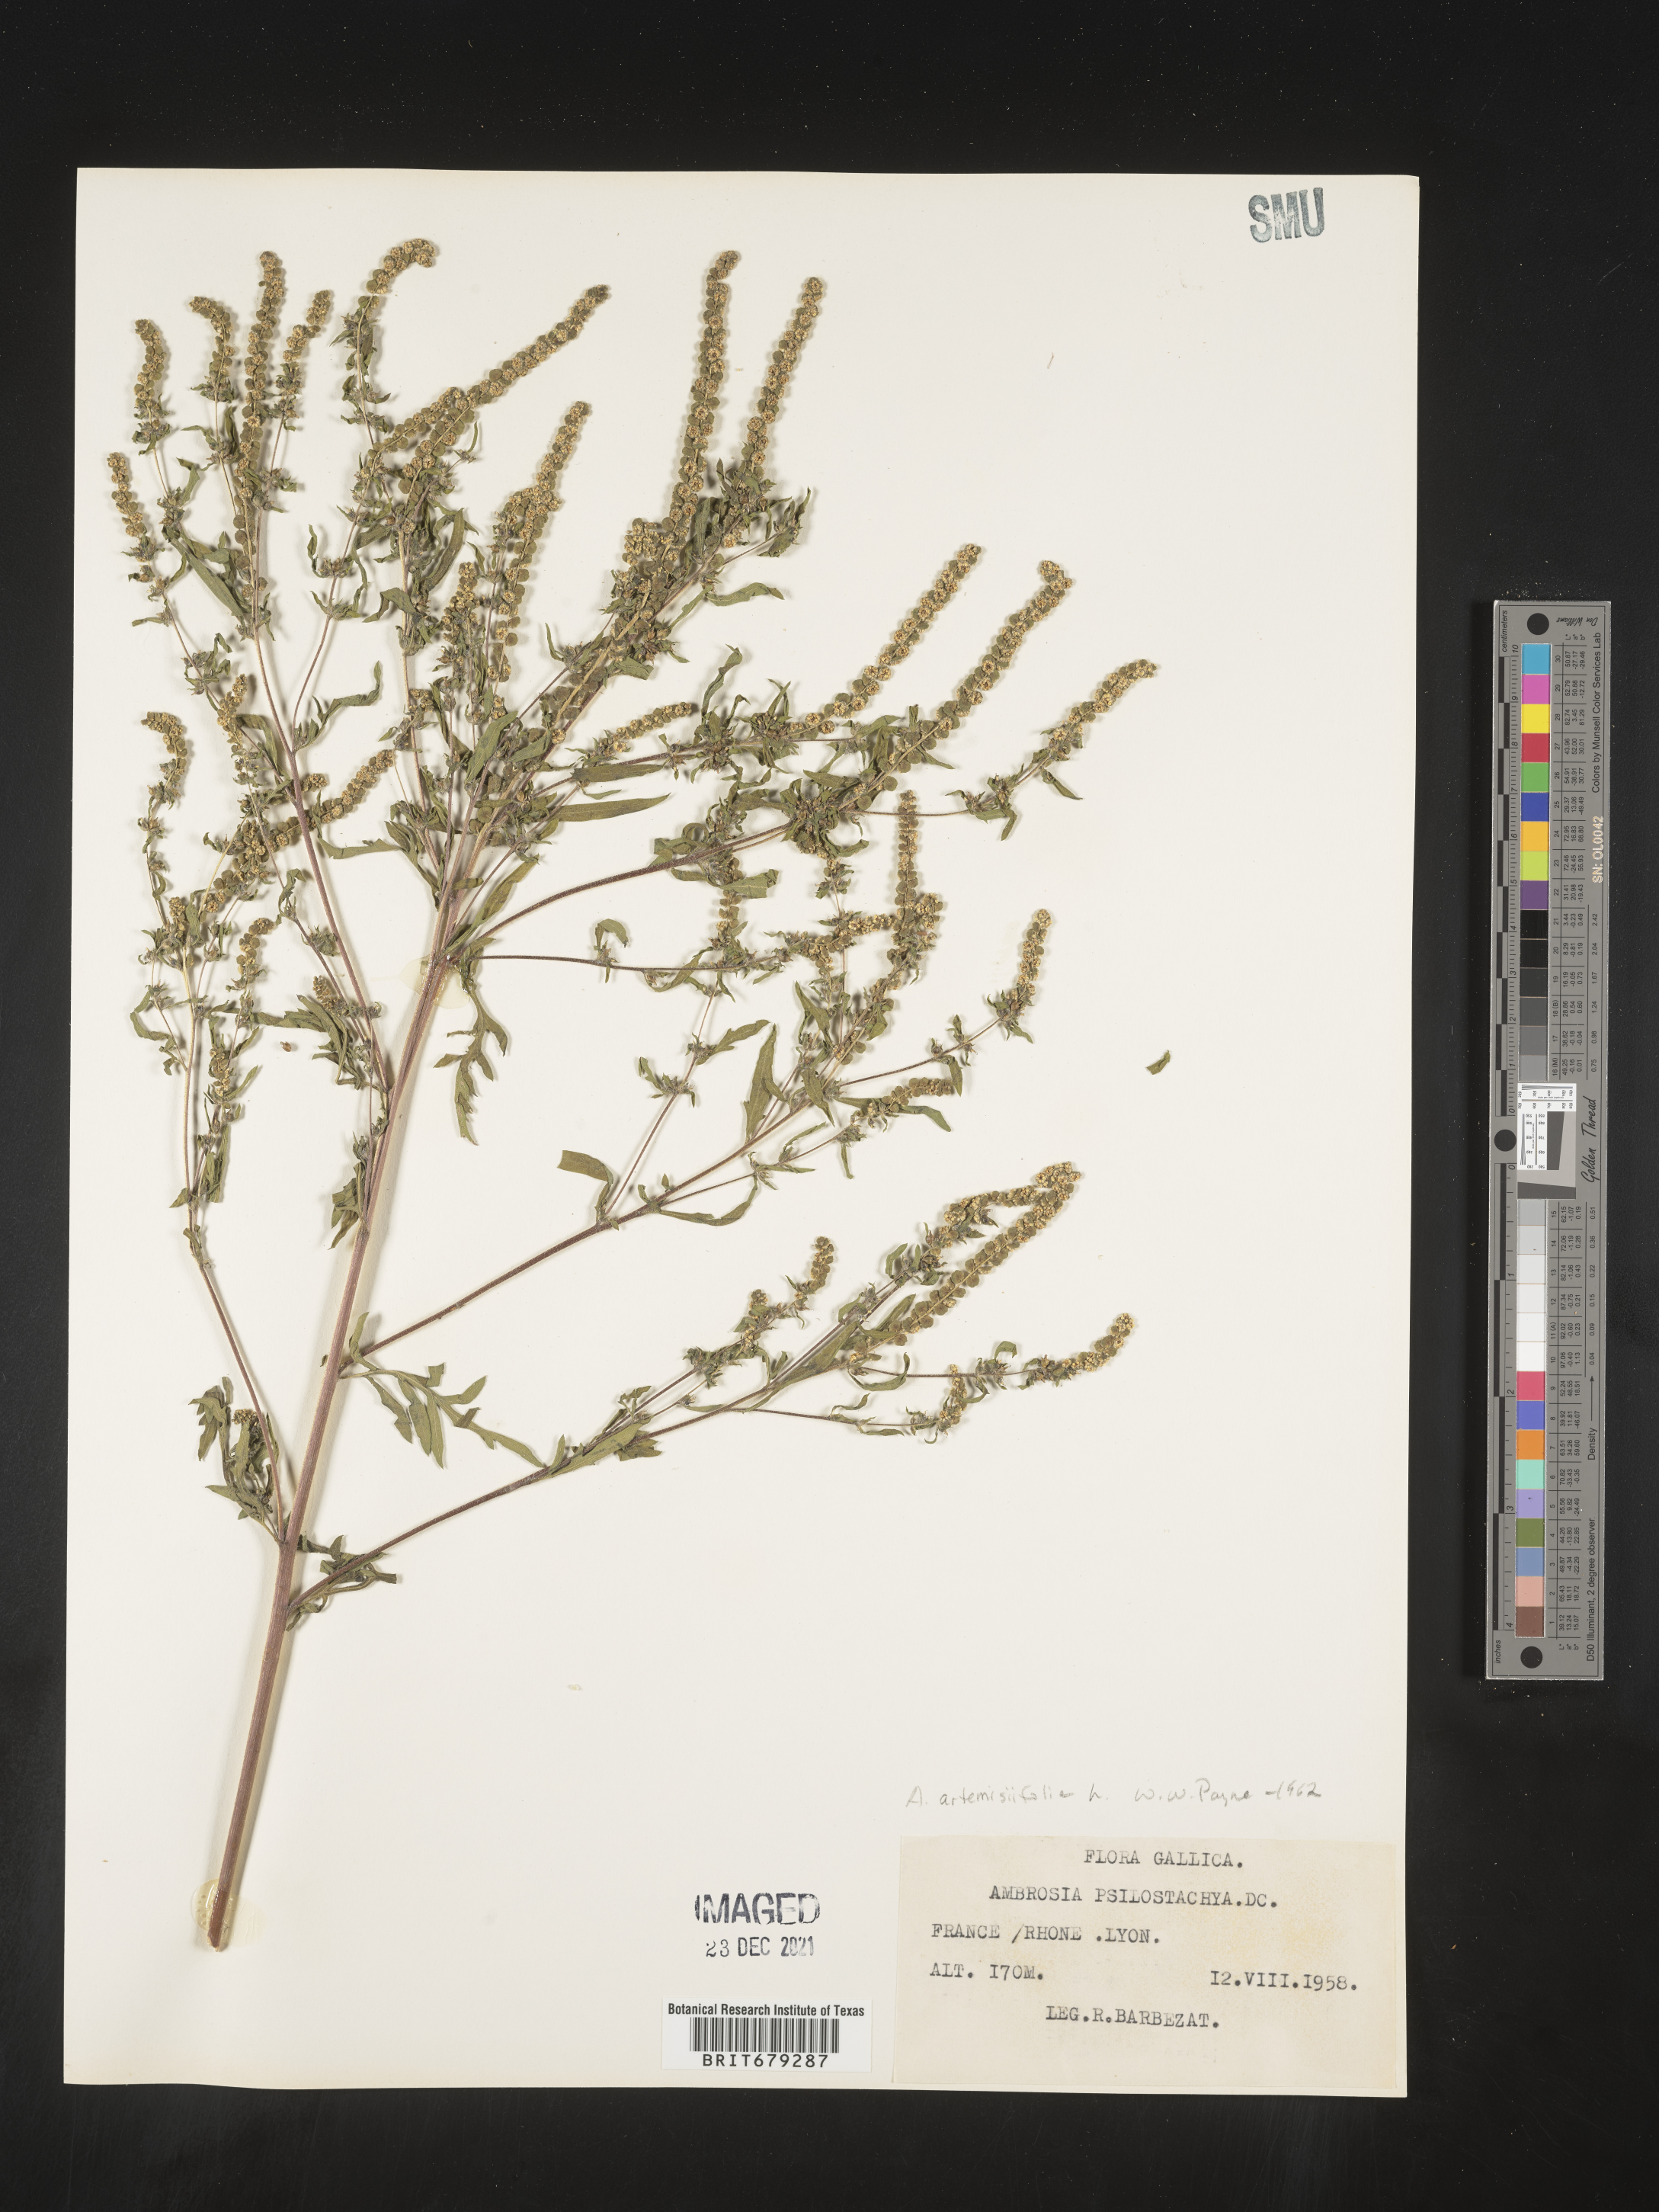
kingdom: Plantae
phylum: Tracheophyta
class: Magnoliopsida
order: Asterales
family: Asteraceae
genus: Ambrosia
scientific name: Ambrosia
